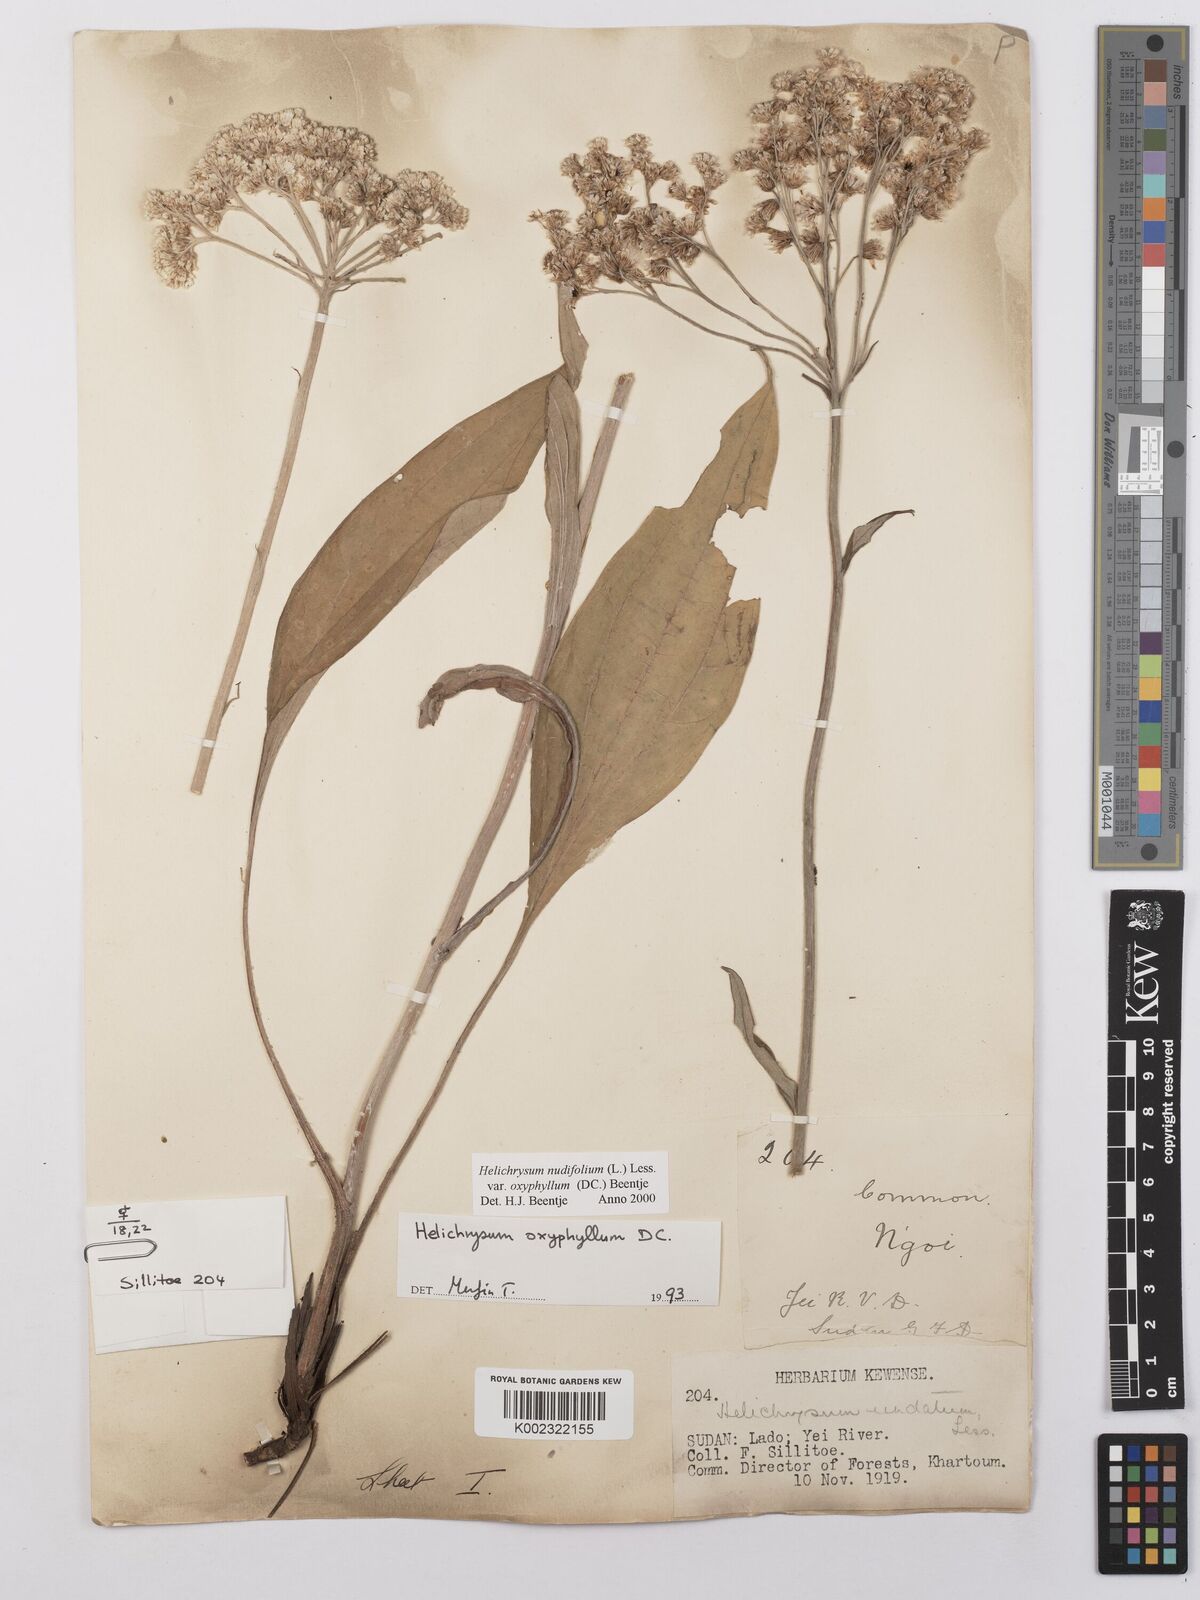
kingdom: Plantae
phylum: Tracheophyta
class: Magnoliopsida
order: Asterales
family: Asteraceae
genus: Helichrysum
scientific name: Helichrysum nudifolium
